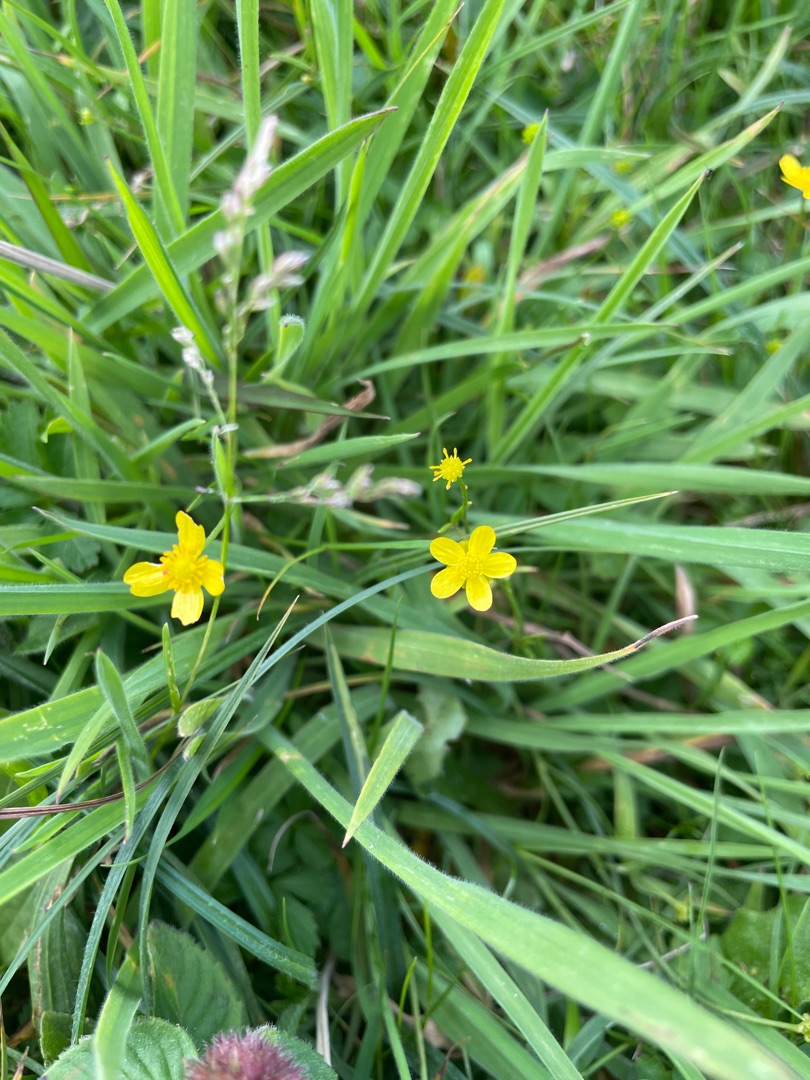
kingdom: Plantae
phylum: Tracheophyta
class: Magnoliopsida
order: Ranunculales
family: Ranunculaceae
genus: Ranunculus
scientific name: Ranunculus flammula
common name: Kær-ranunkel
